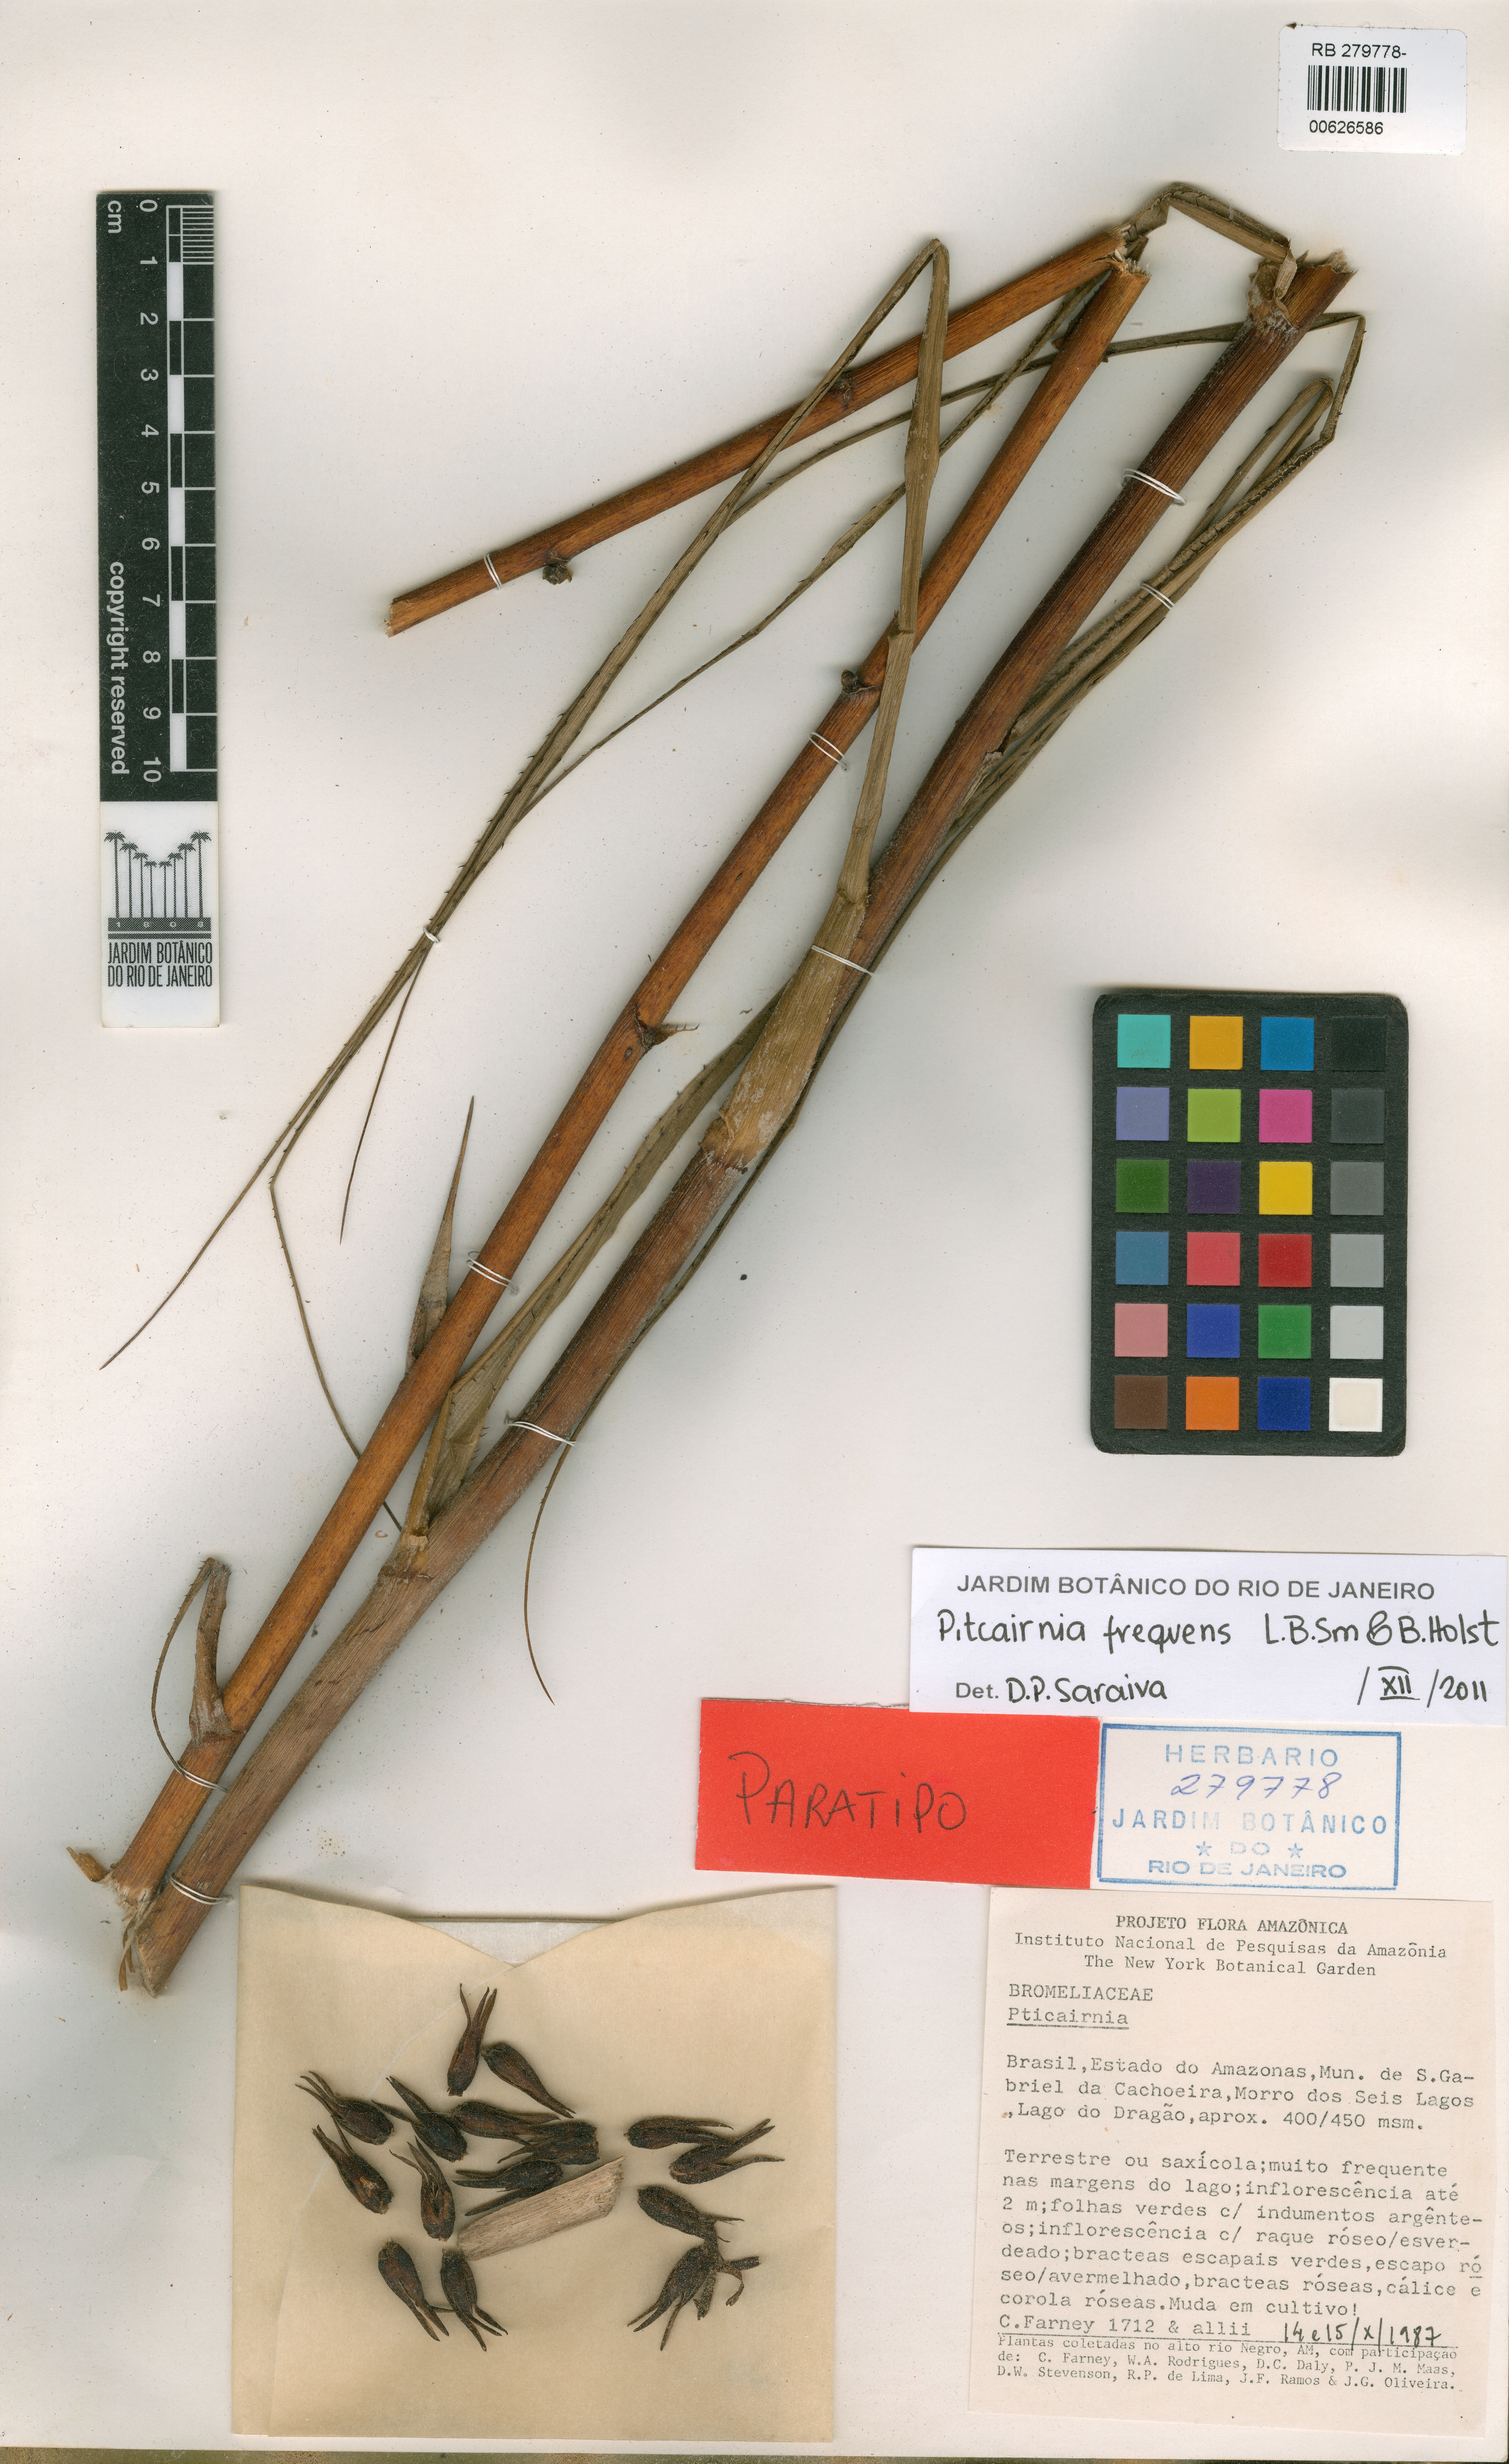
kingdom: Plantae
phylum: Tracheophyta
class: Liliopsida
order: Poales
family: Bromeliaceae
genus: Pitcairnia
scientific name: Pitcairnia frequens
